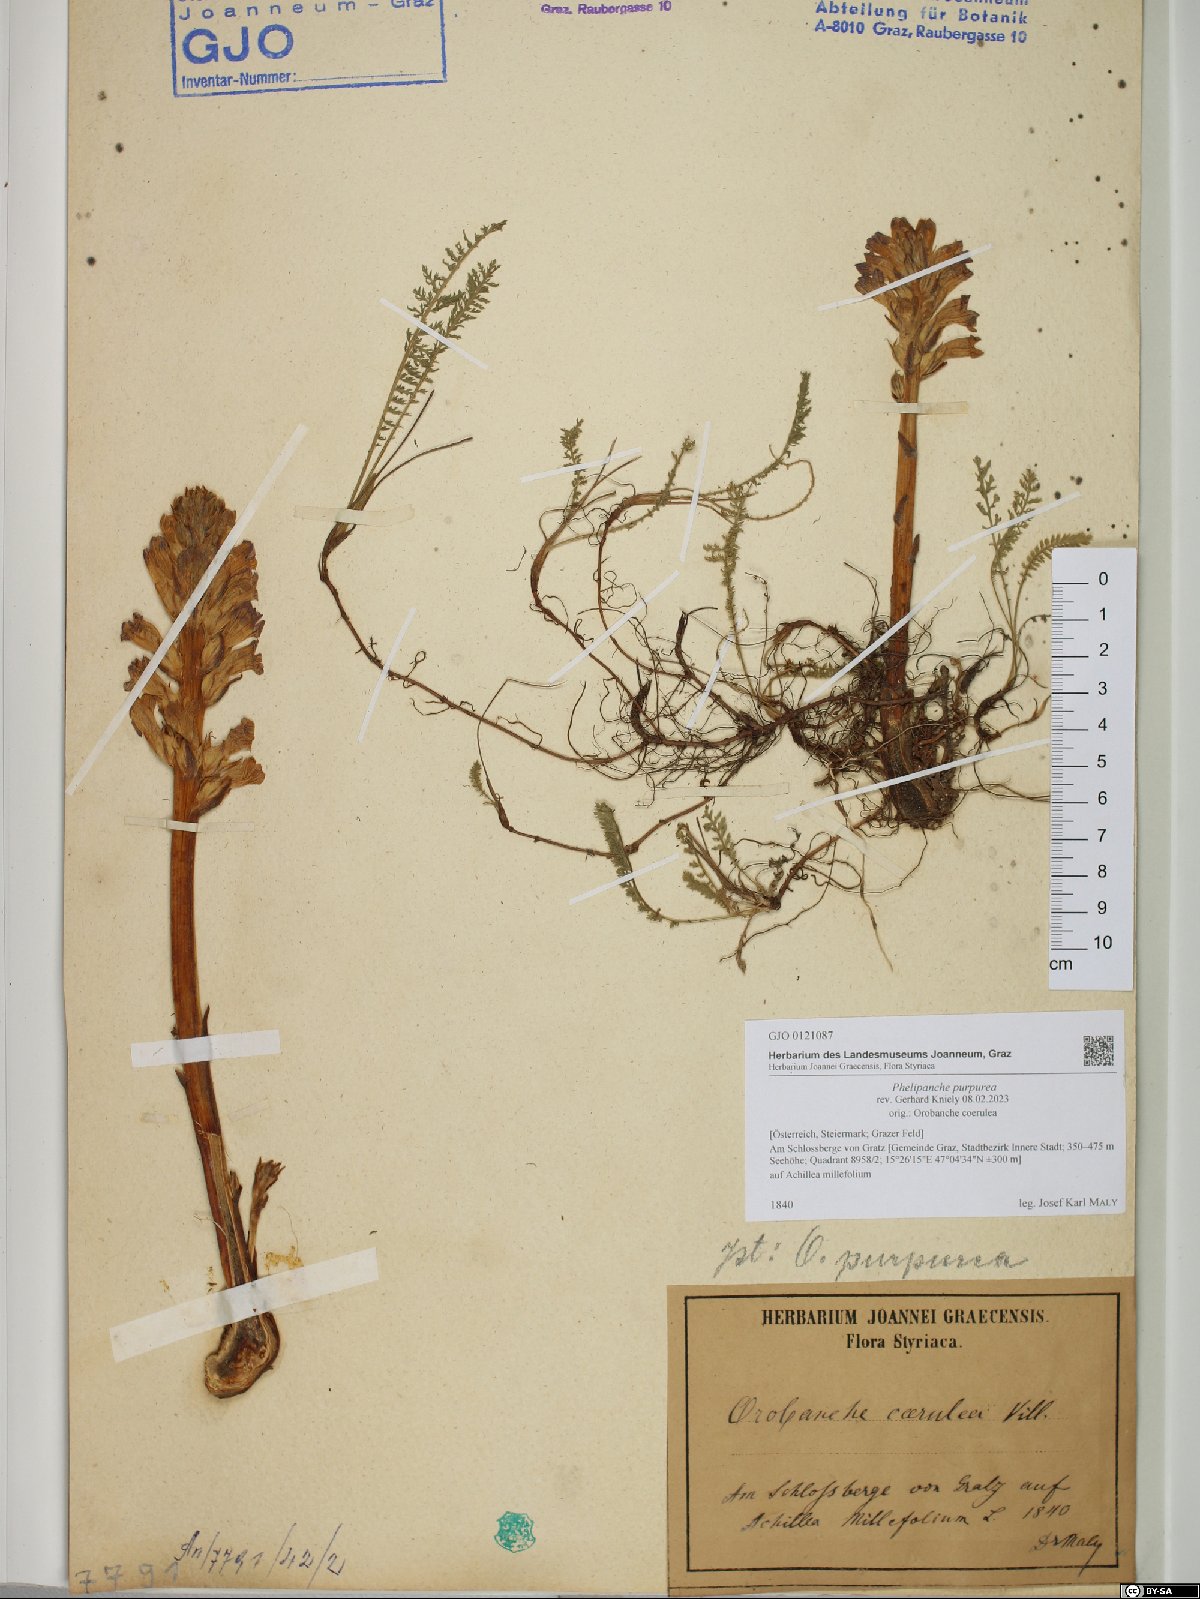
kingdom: Plantae
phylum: Tracheophyta
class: Magnoliopsida
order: Lamiales
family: Orobanchaceae
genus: Phelipanche
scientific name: Phelipanche purpurea
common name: Purple broomrape
